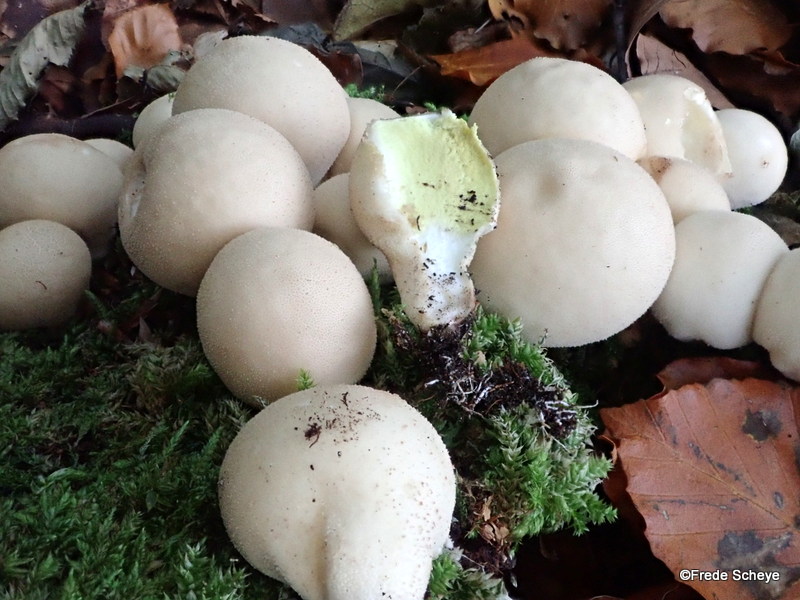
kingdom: Fungi
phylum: Basidiomycota
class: Agaricomycetes
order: Agaricales
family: Lycoperdaceae
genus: Apioperdon
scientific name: Apioperdon pyriforme
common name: pære-støvbold
